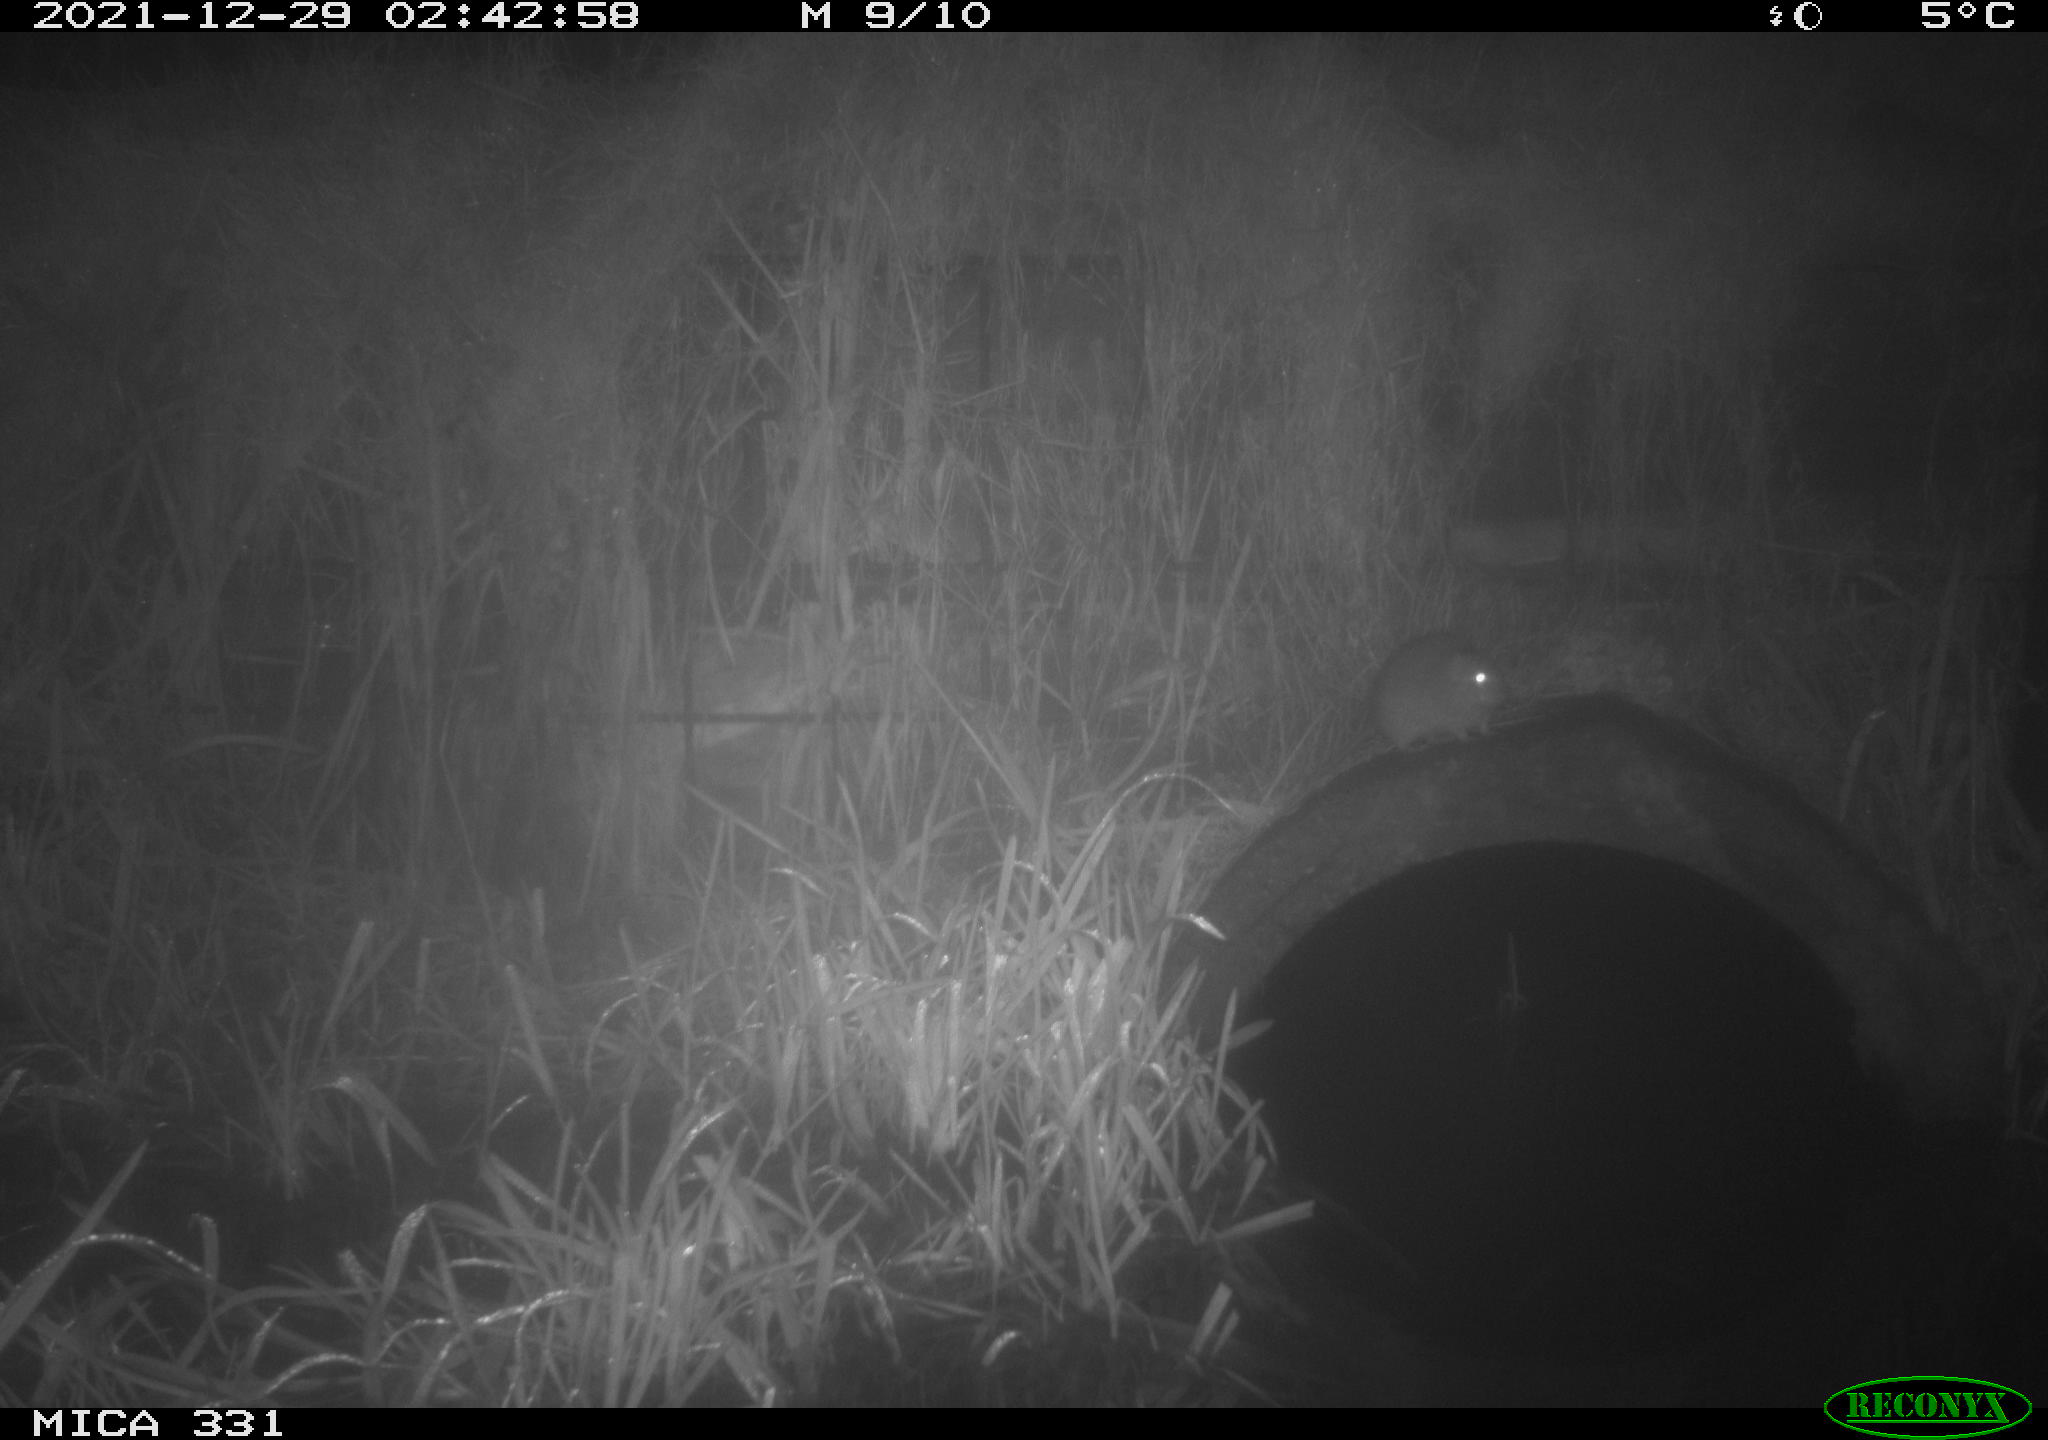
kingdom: Animalia
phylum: Chordata
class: Mammalia
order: Rodentia
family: Muridae
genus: Rattus
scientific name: Rattus norvegicus
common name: Brown rat
